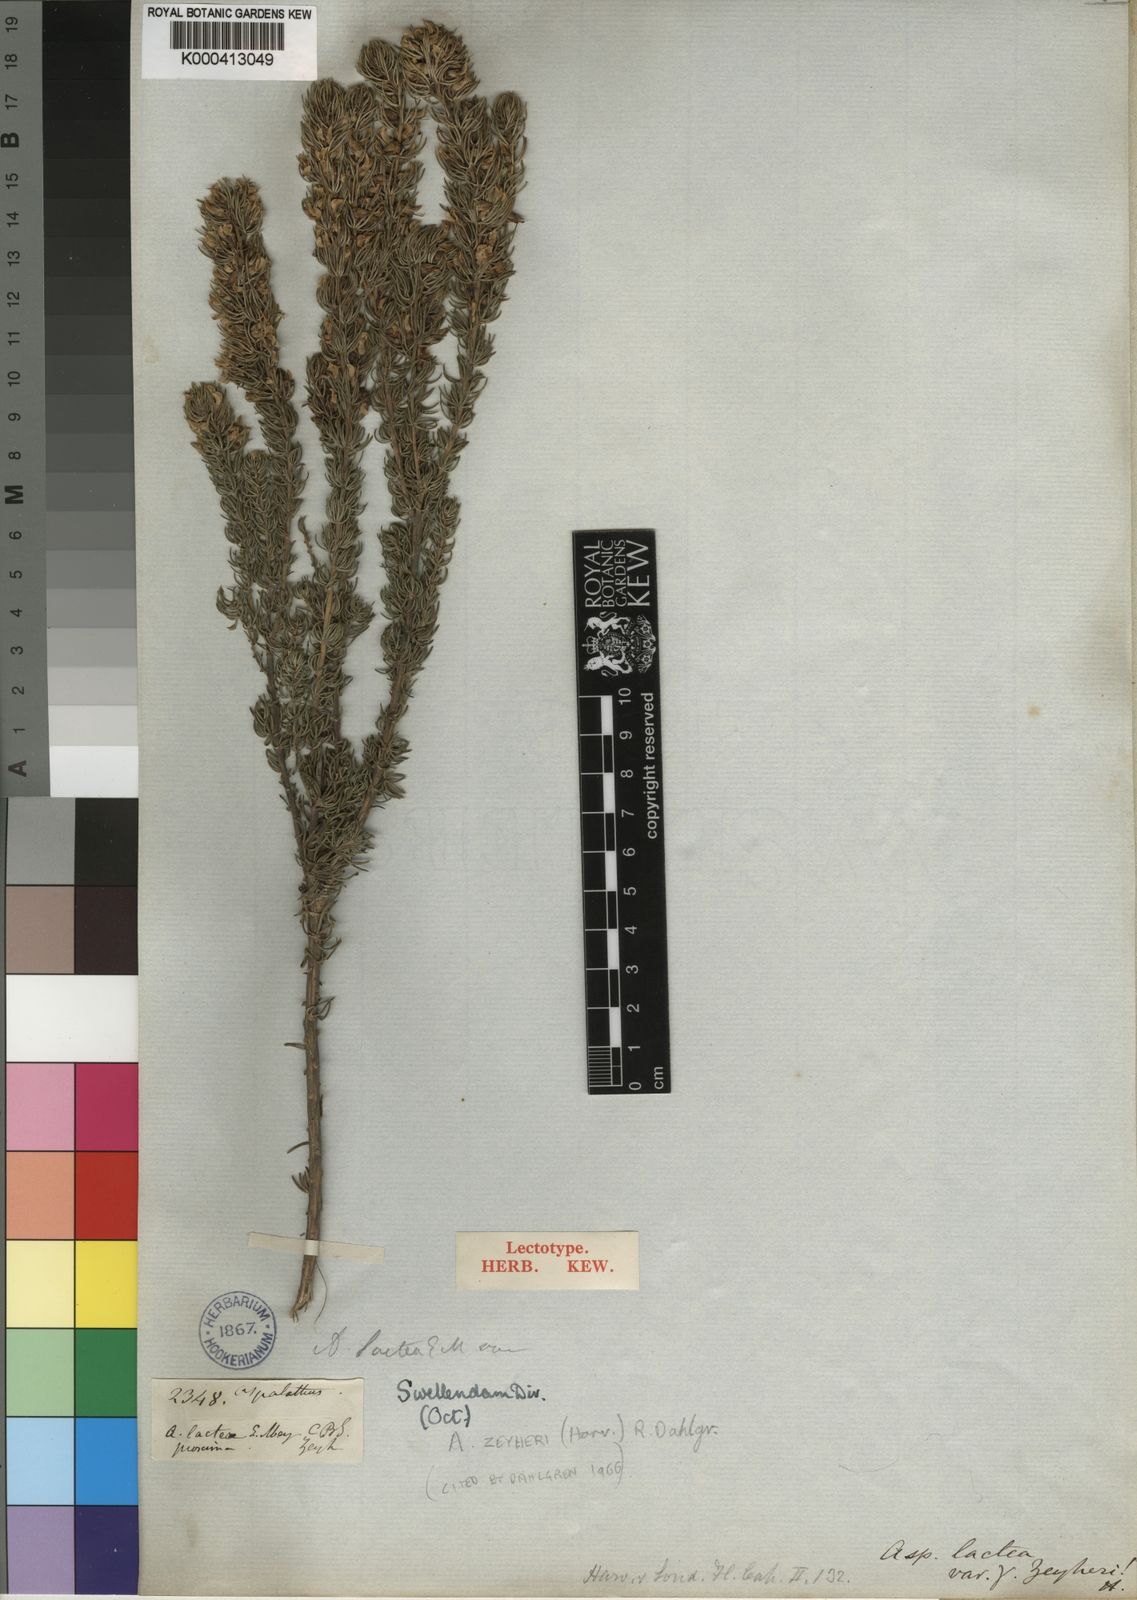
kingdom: Plantae
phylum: Tracheophyta
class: Magnoliopsida
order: Fabales
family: Fabaceae
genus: Aspalathus
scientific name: Aspalathus recurvispina
